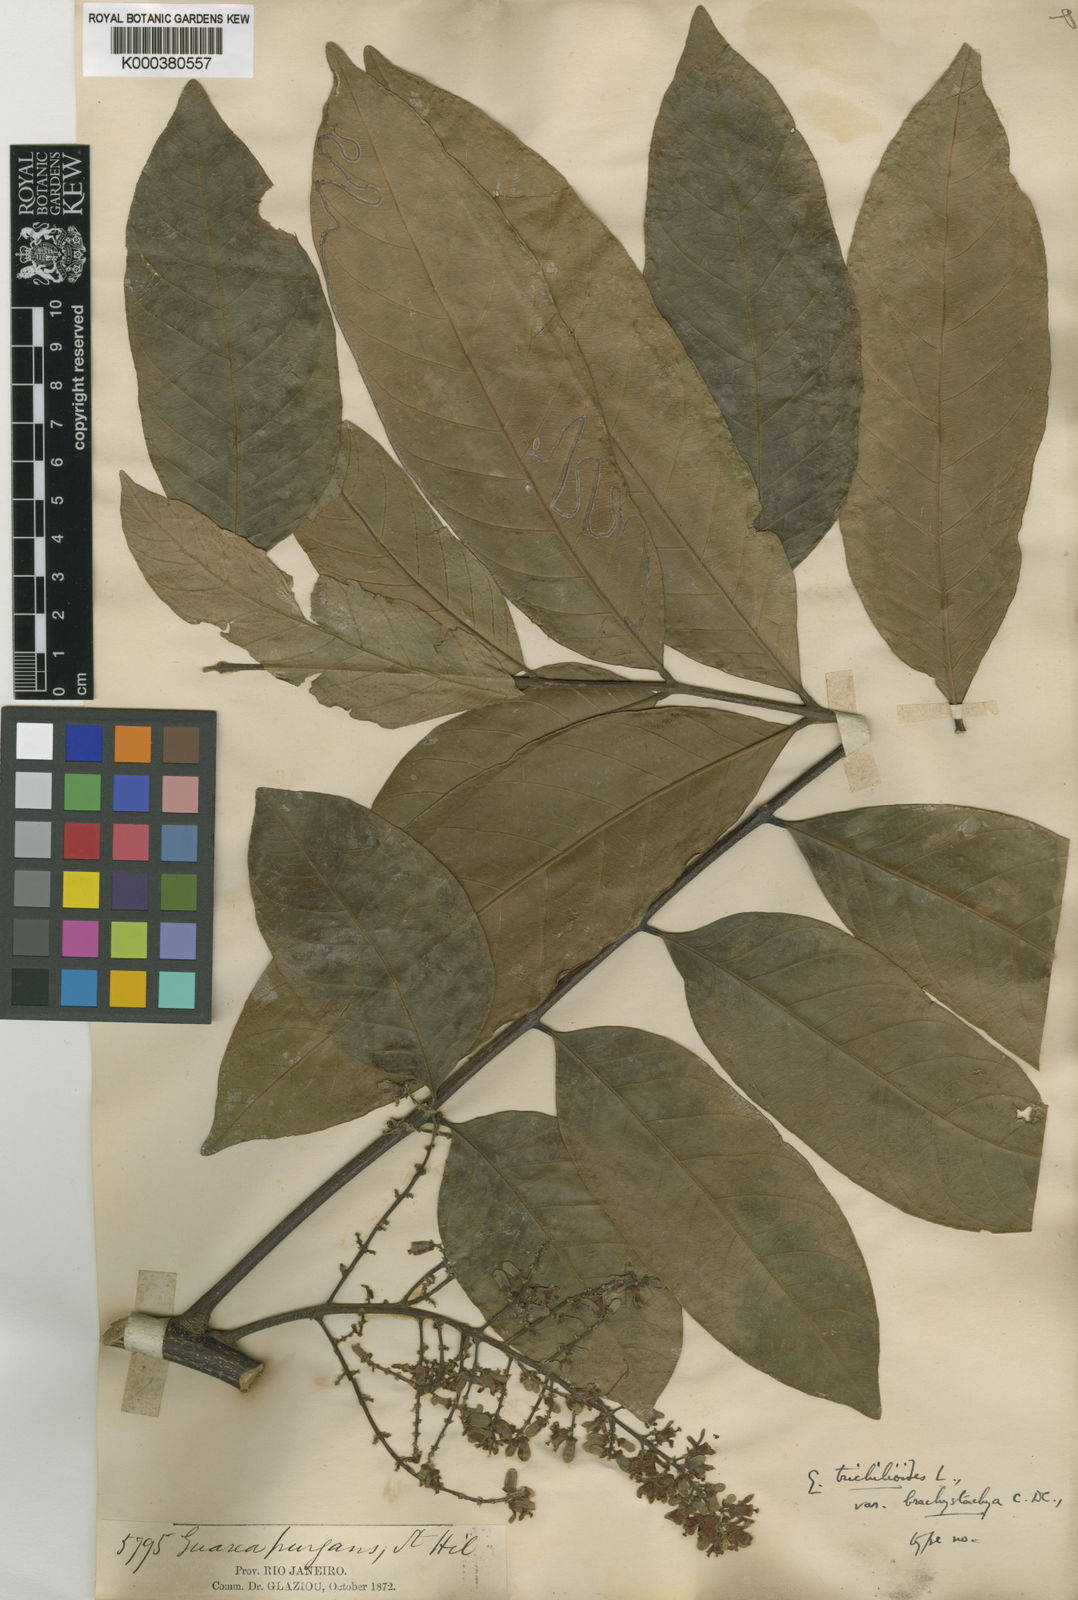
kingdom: Plantae
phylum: Tracheophyta
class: Magnoliopsida
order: Sapindales
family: Meliaceae
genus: Guarea
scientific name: Guarea guidonia
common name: American muskwood
